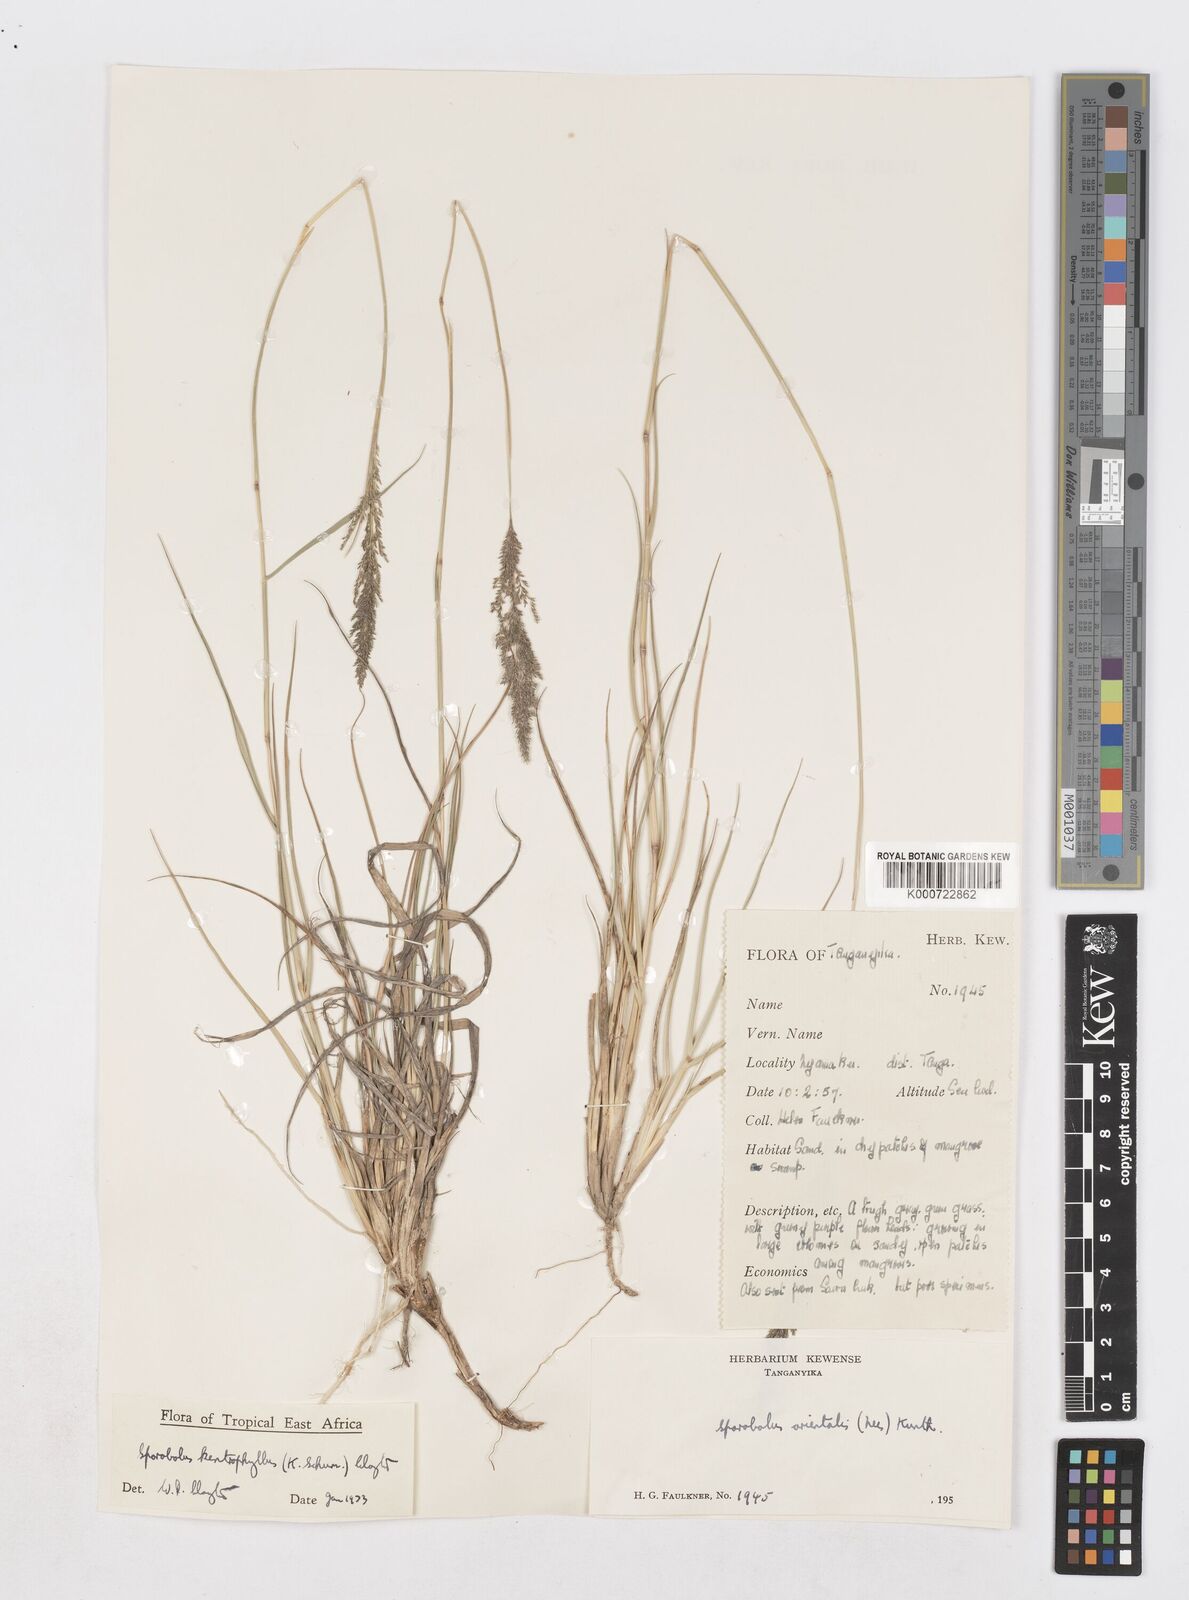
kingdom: Plantae
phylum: Tracheophyta
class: Liliopsida
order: Poales
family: Poaceae
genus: Sporobolus
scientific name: Sporobolus ioclados
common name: Pan dropseed
